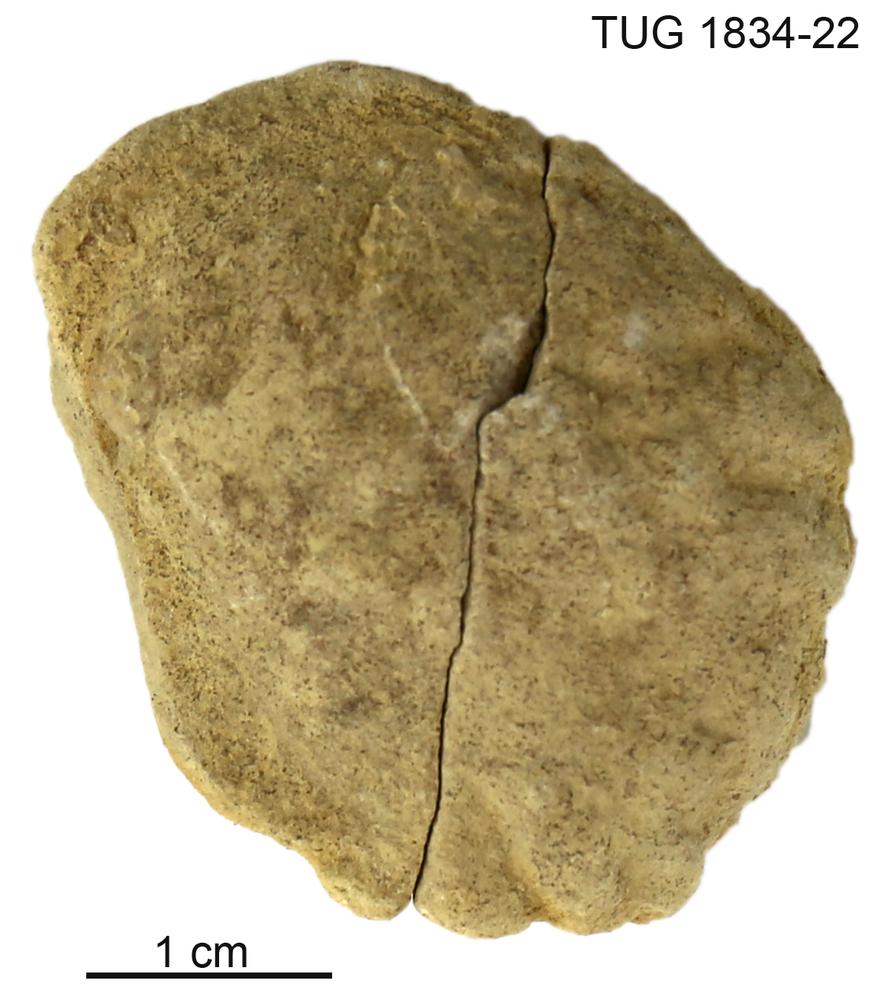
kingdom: Animalia
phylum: Porifera
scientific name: Porifera
